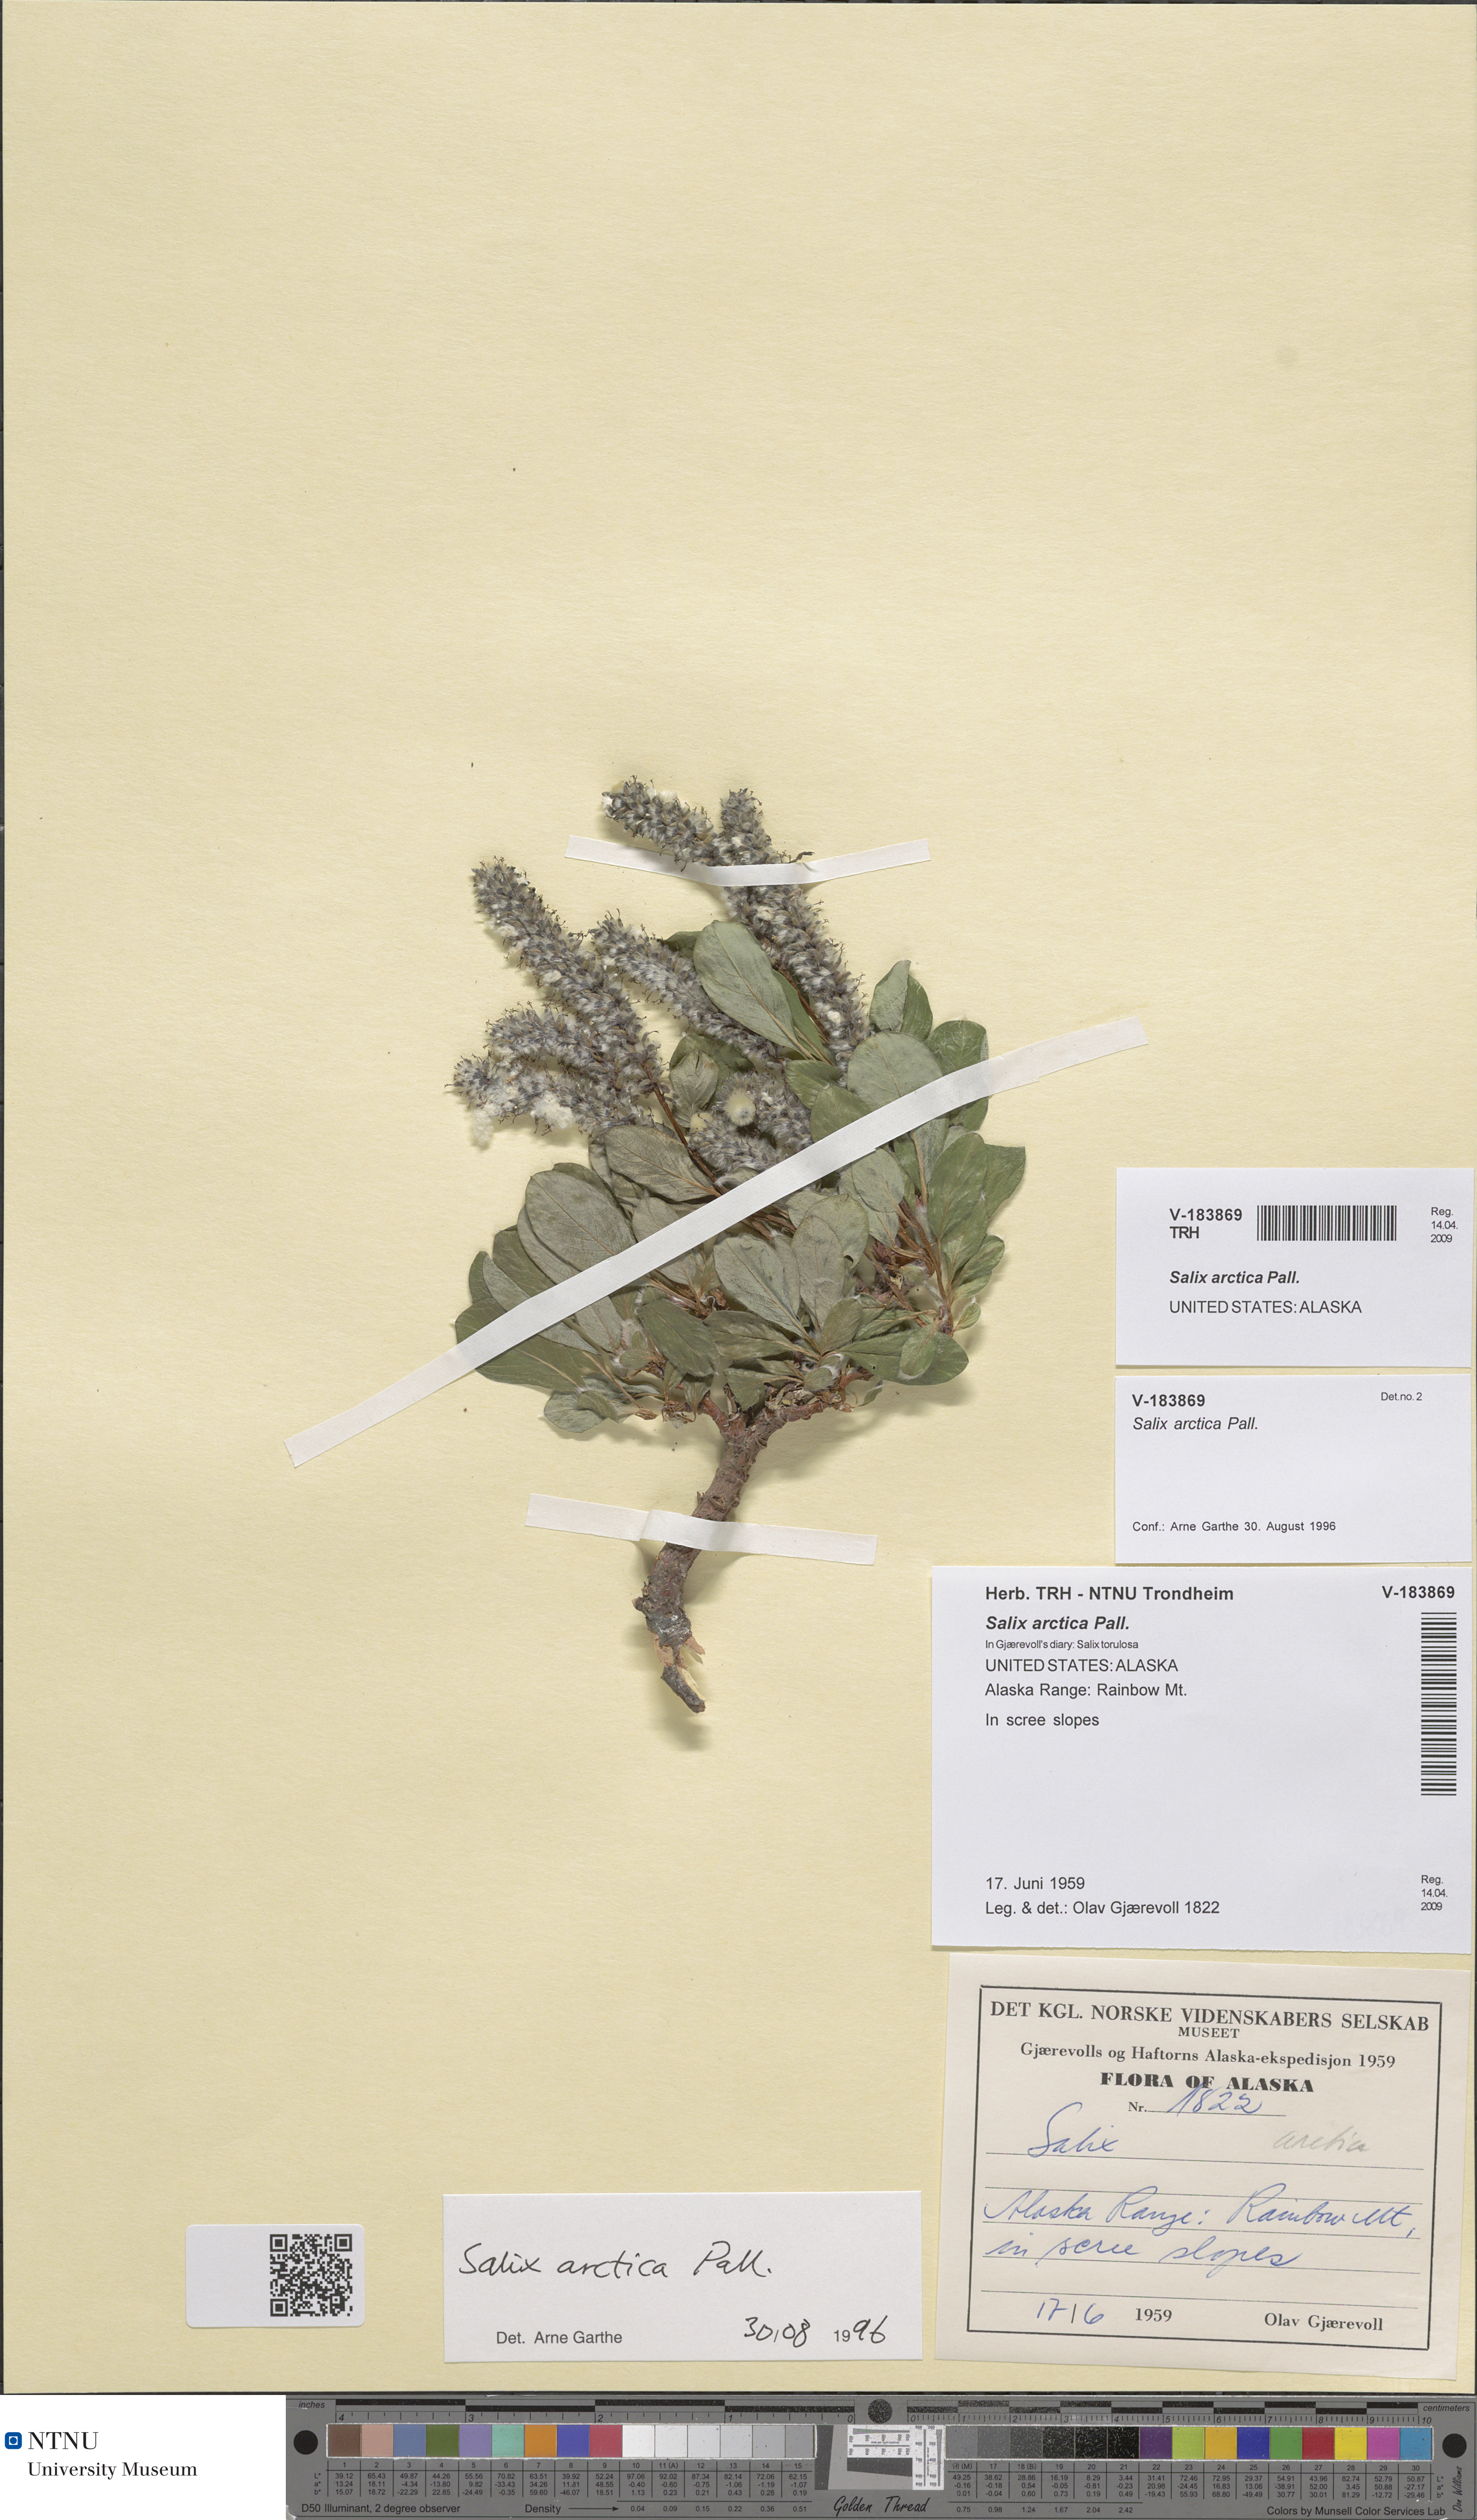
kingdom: Plantae
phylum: Tracheophyta
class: Magnoliopsida
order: Malpighiales
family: Salicaceae
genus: Salix
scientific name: Salix arctica
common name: Arctic willow
